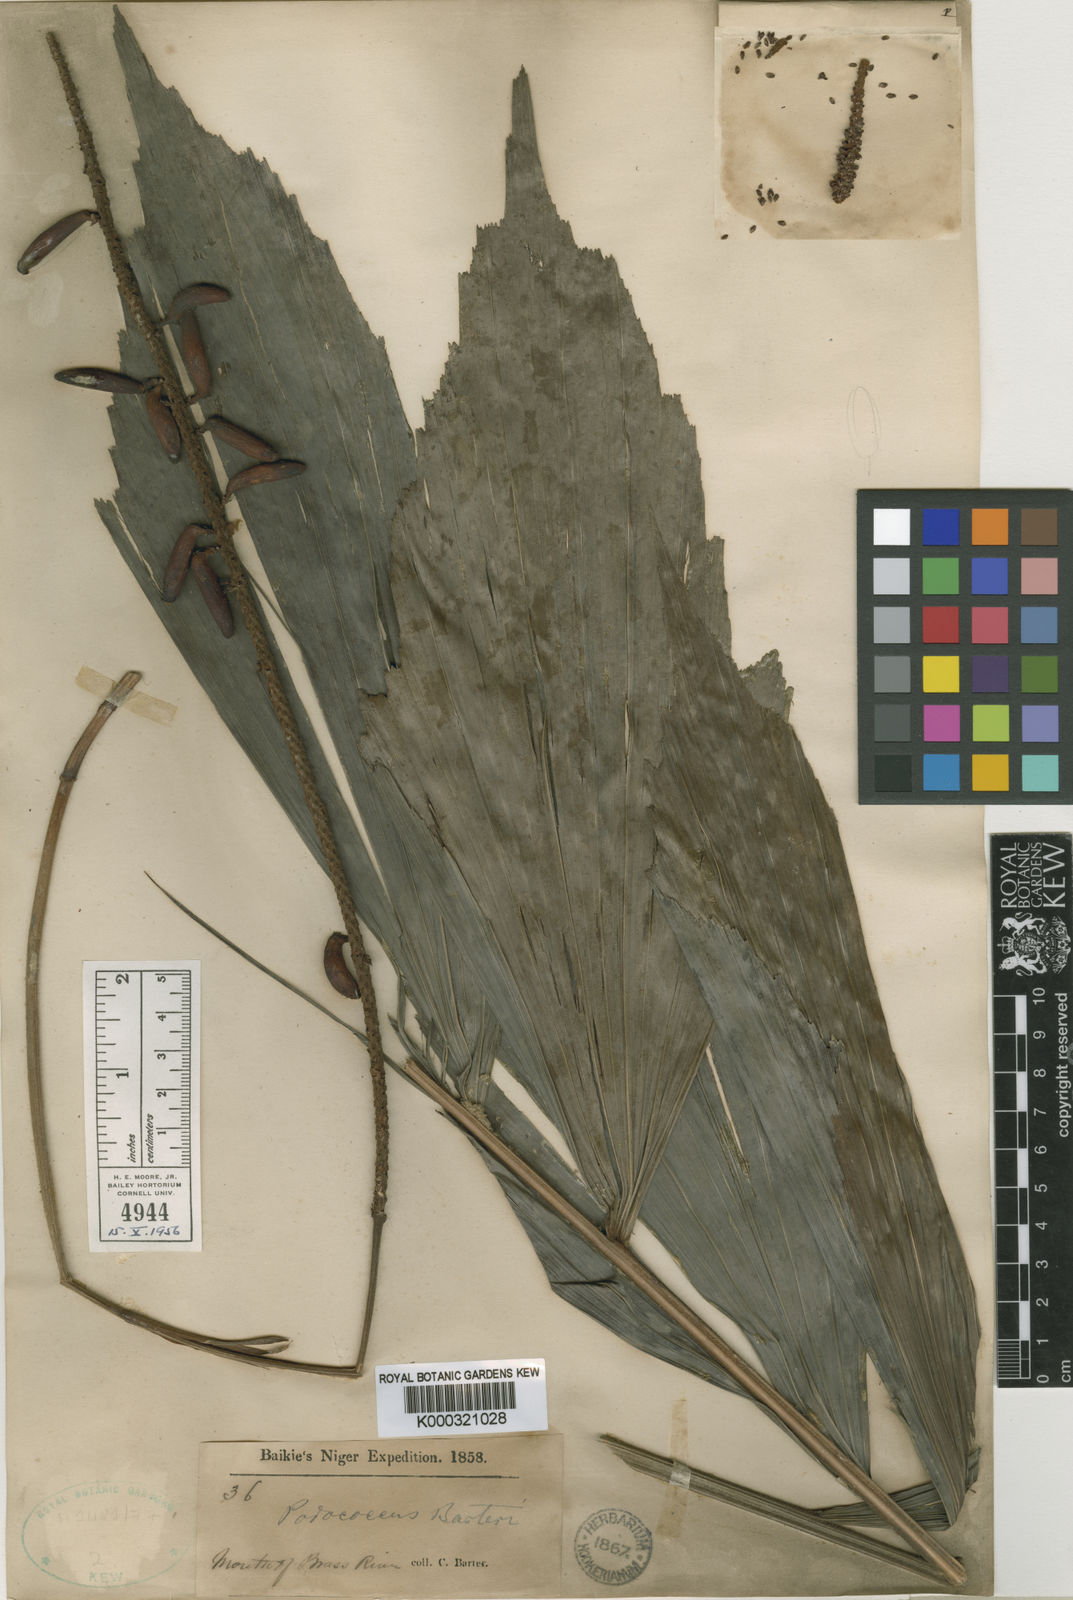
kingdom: Plantae
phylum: Tracheophyta
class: Liliopsida
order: Arecales
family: Arecaceae
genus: Podococcus
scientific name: Podococcus barteri
